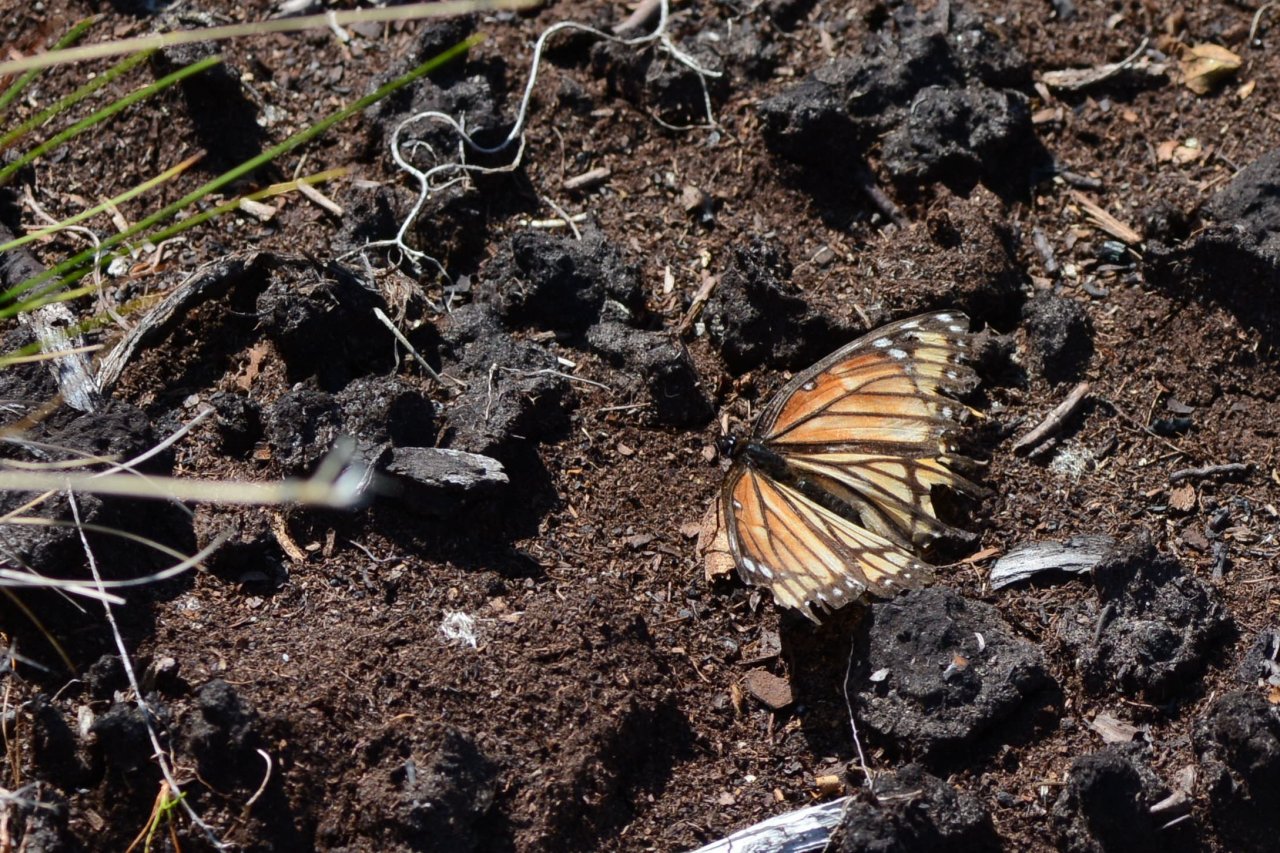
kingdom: Animalia
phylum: Arthropoda
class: Insecta
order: Lepidoptera
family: Nymphalidae
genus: Limenitis
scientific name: Limenitis archippus
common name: Viceroy
